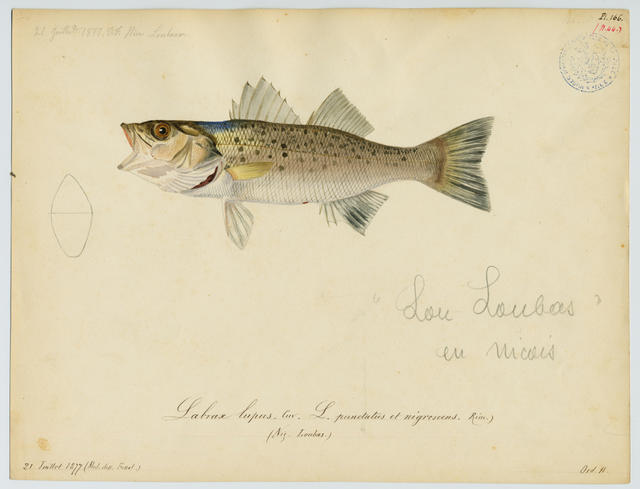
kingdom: Animalia
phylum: Chordata
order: Perciformes
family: Moronidae
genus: Dicentrarchus
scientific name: Dicentrarchus punctatus
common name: Black-spotted bass
